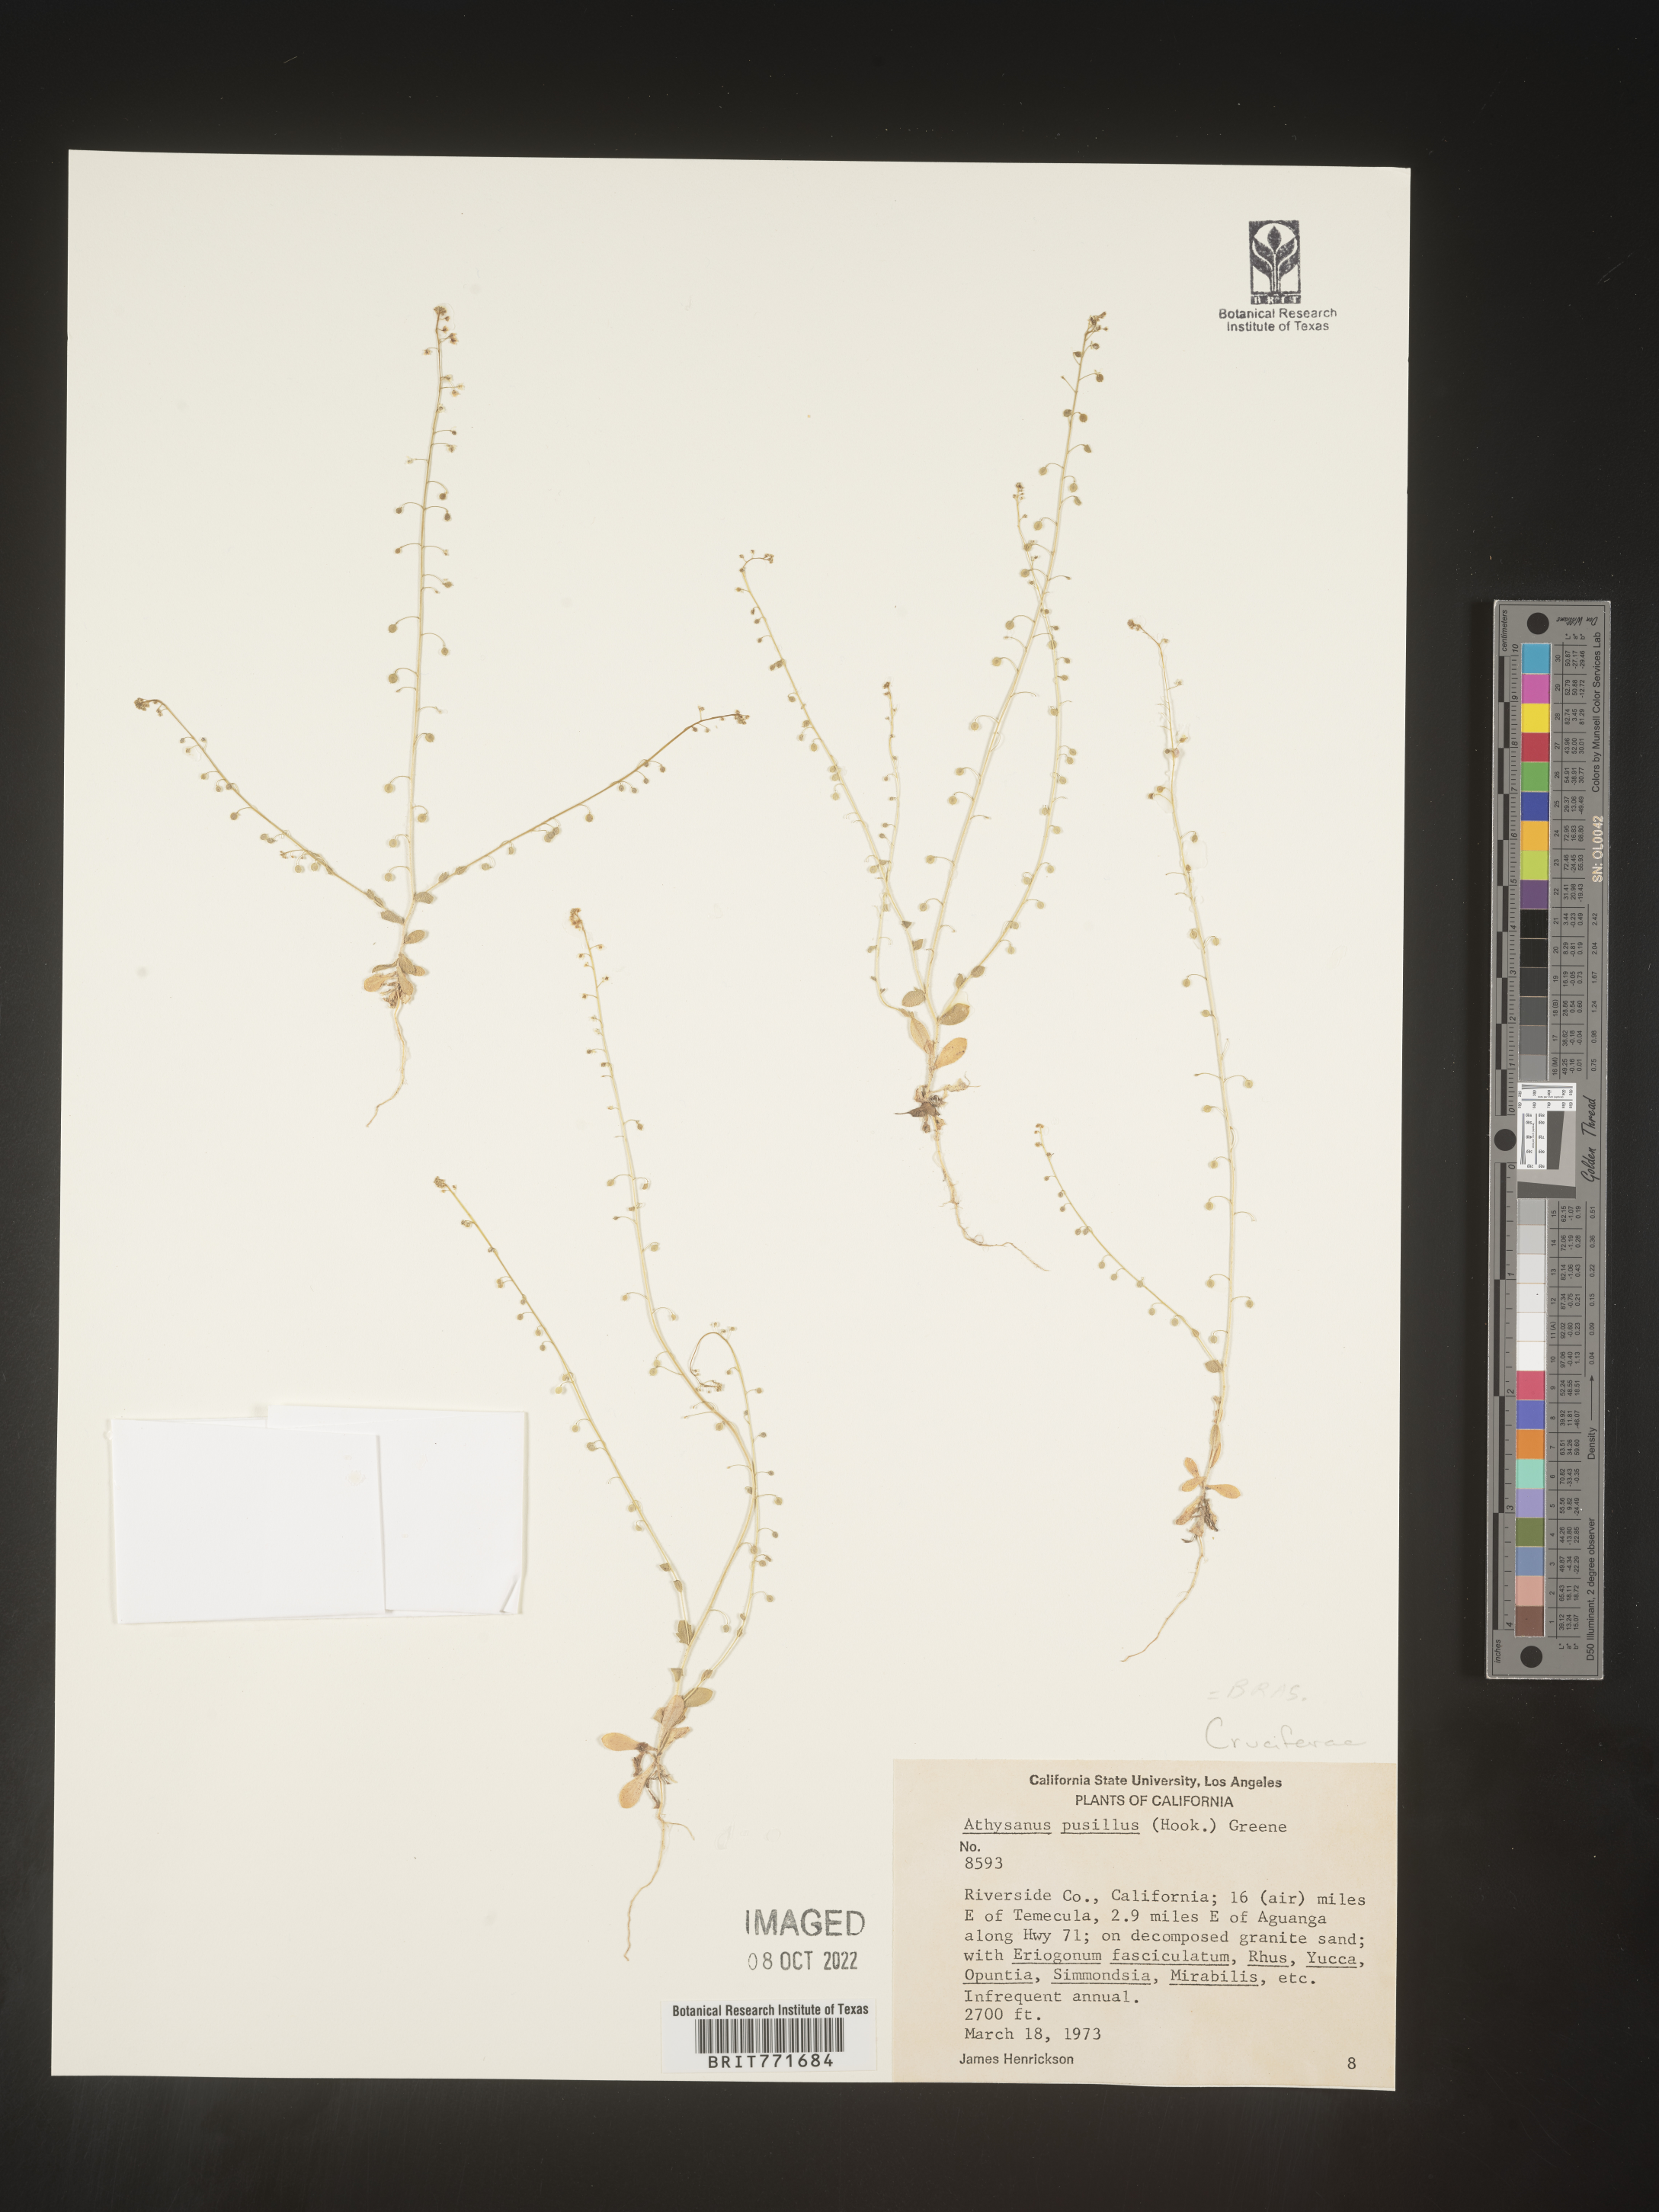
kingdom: Plantae
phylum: Tracheophyta
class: Magnoliopsida
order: Brassicales
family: Brassicaceae
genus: Athysanus
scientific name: Athysanus
